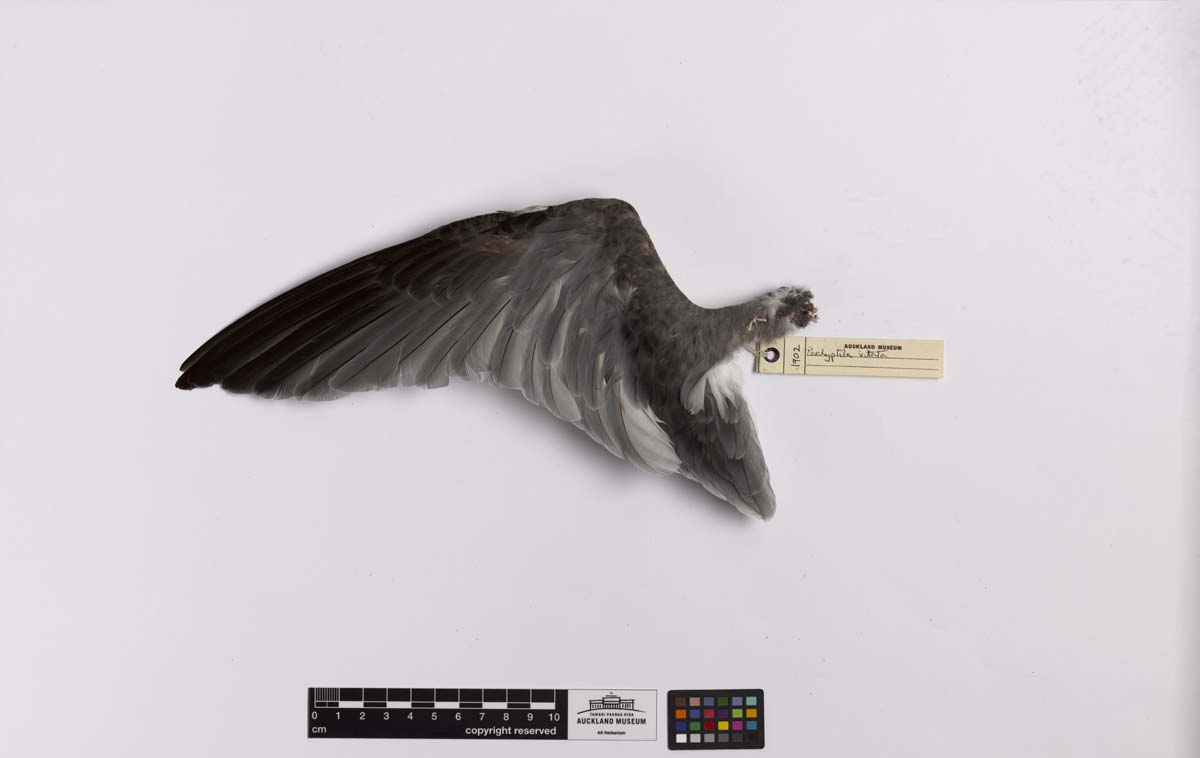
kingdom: Animalia
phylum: Chordata
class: Aves
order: Procellariiformes
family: Procellariidae
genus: Pachyptila
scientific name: Pachyptila vittata
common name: Broad-billed prion
